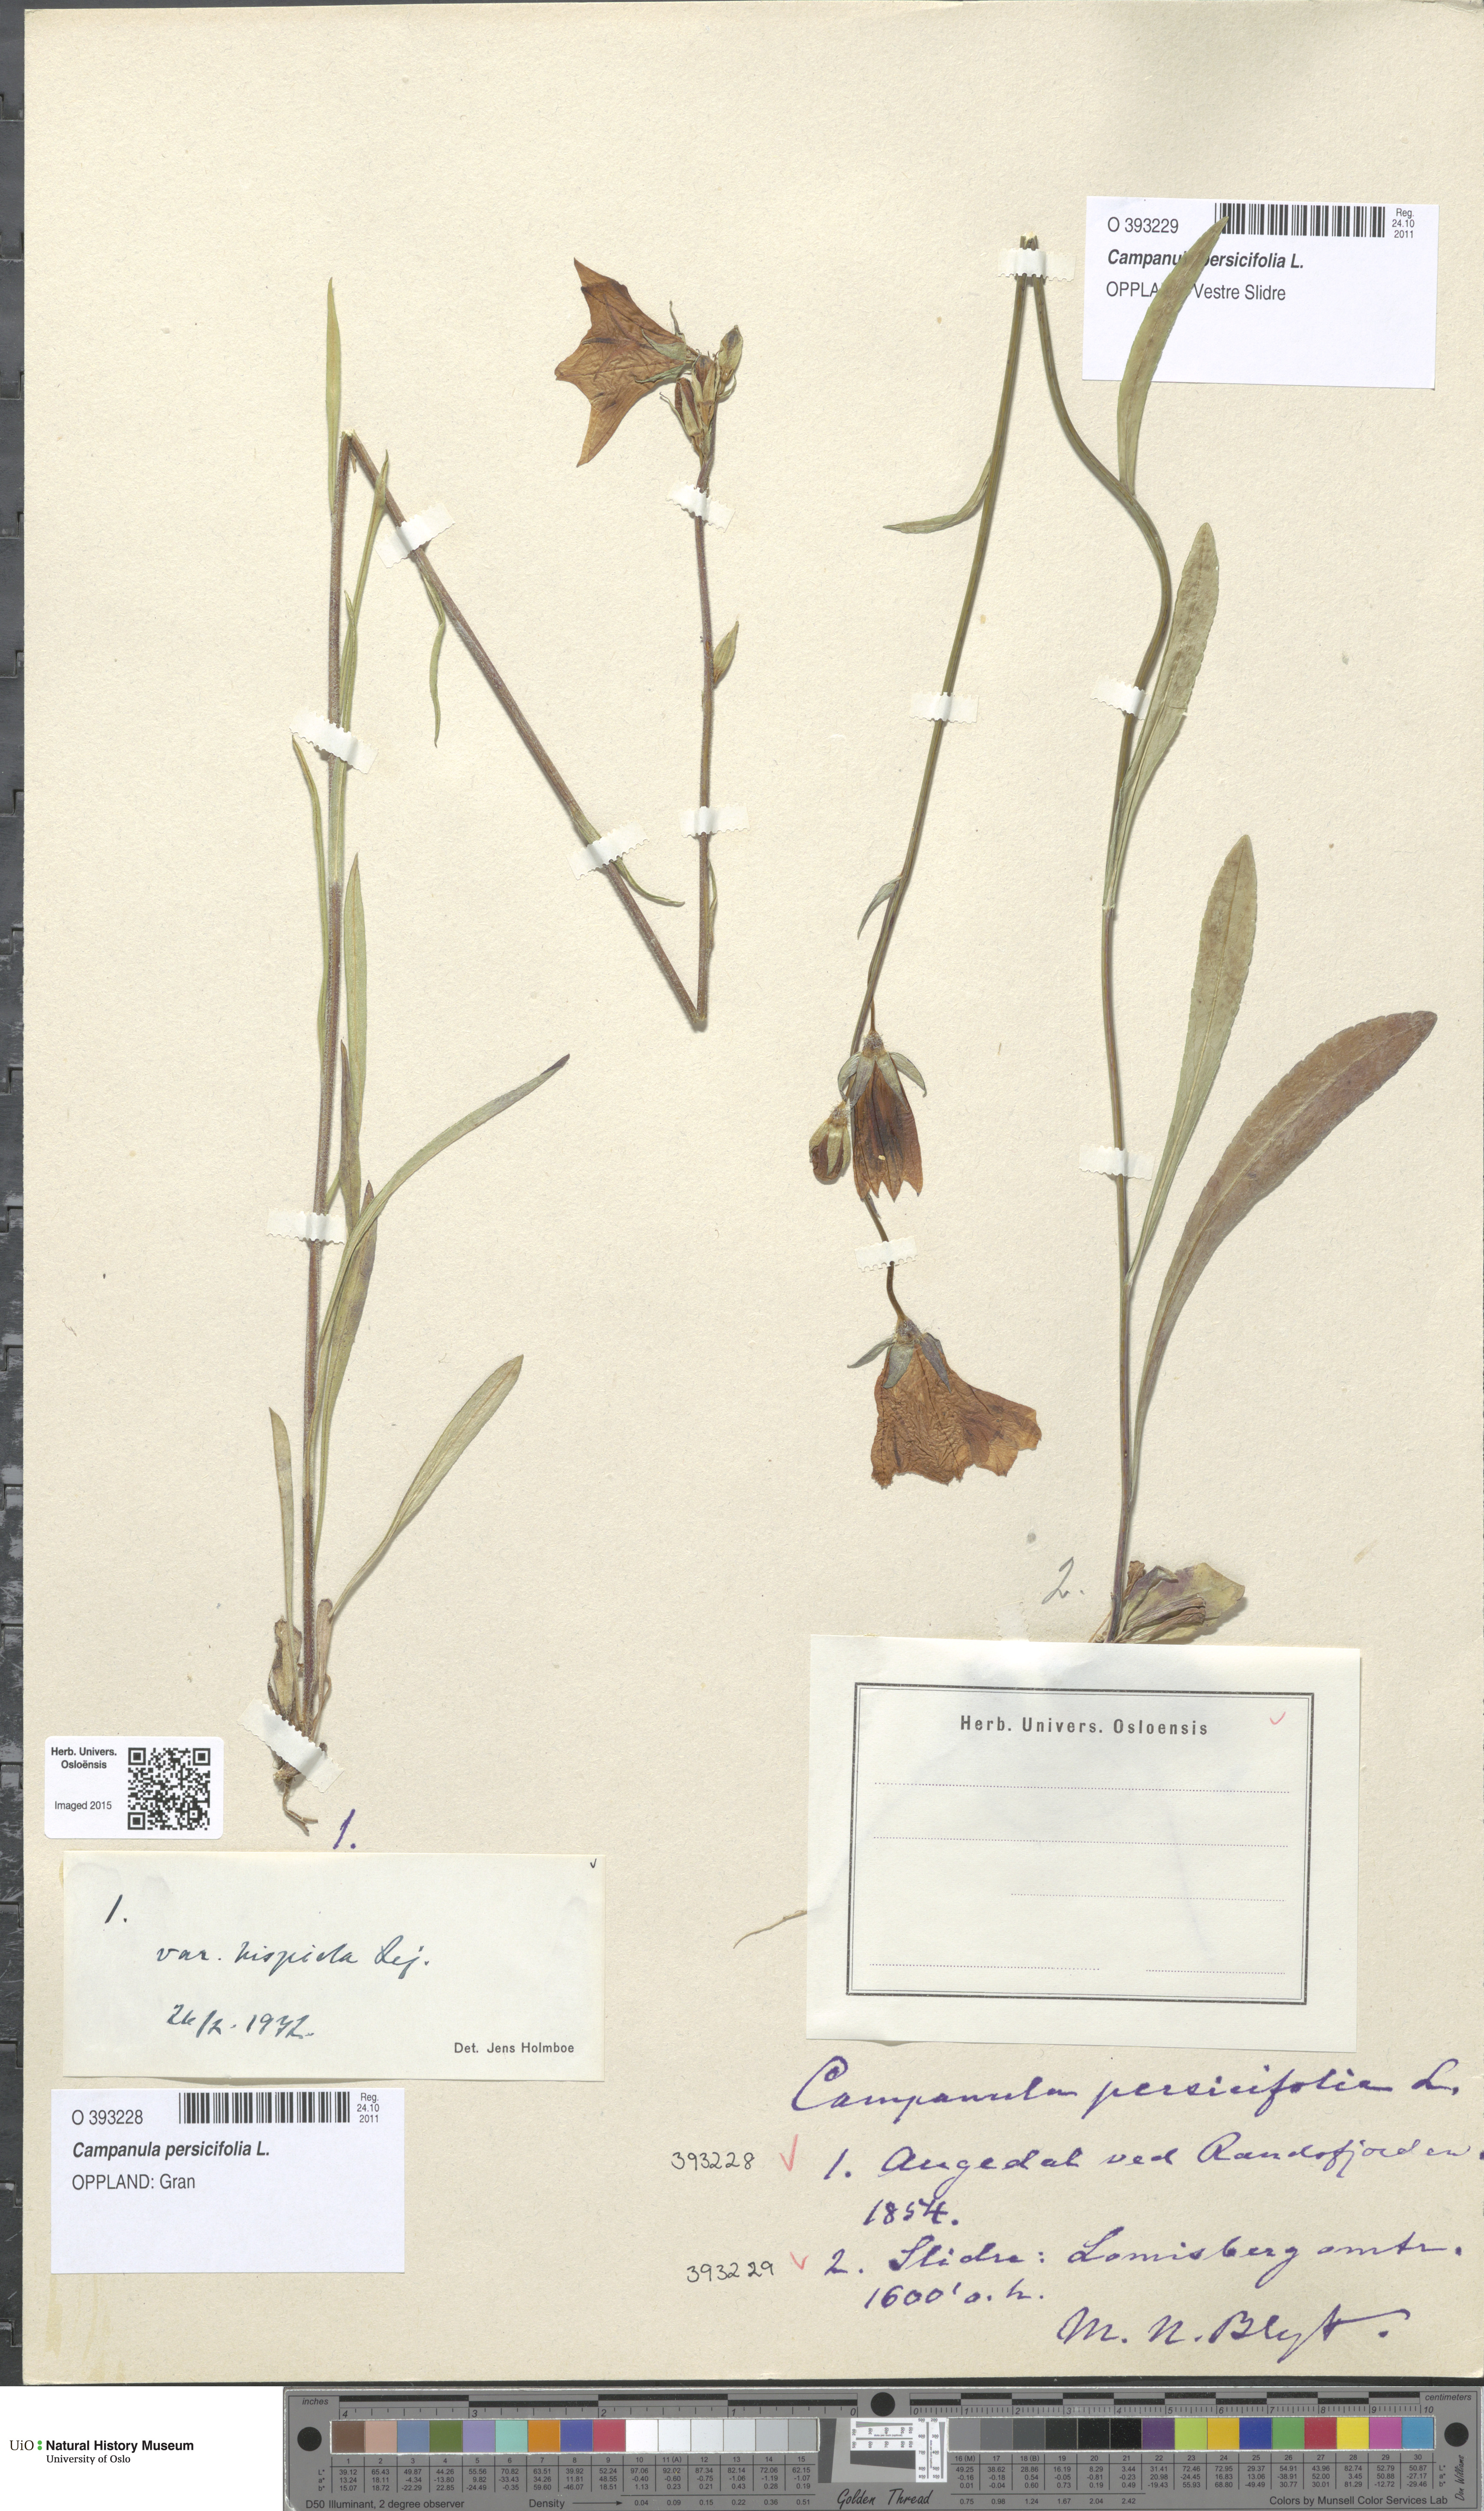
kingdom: Plantae
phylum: Tracheophyta
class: Magnoliopsida
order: Asterales
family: Campanulaceae
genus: Campanula
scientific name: Campanula persicifolia
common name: Peach-leaved bellflower
